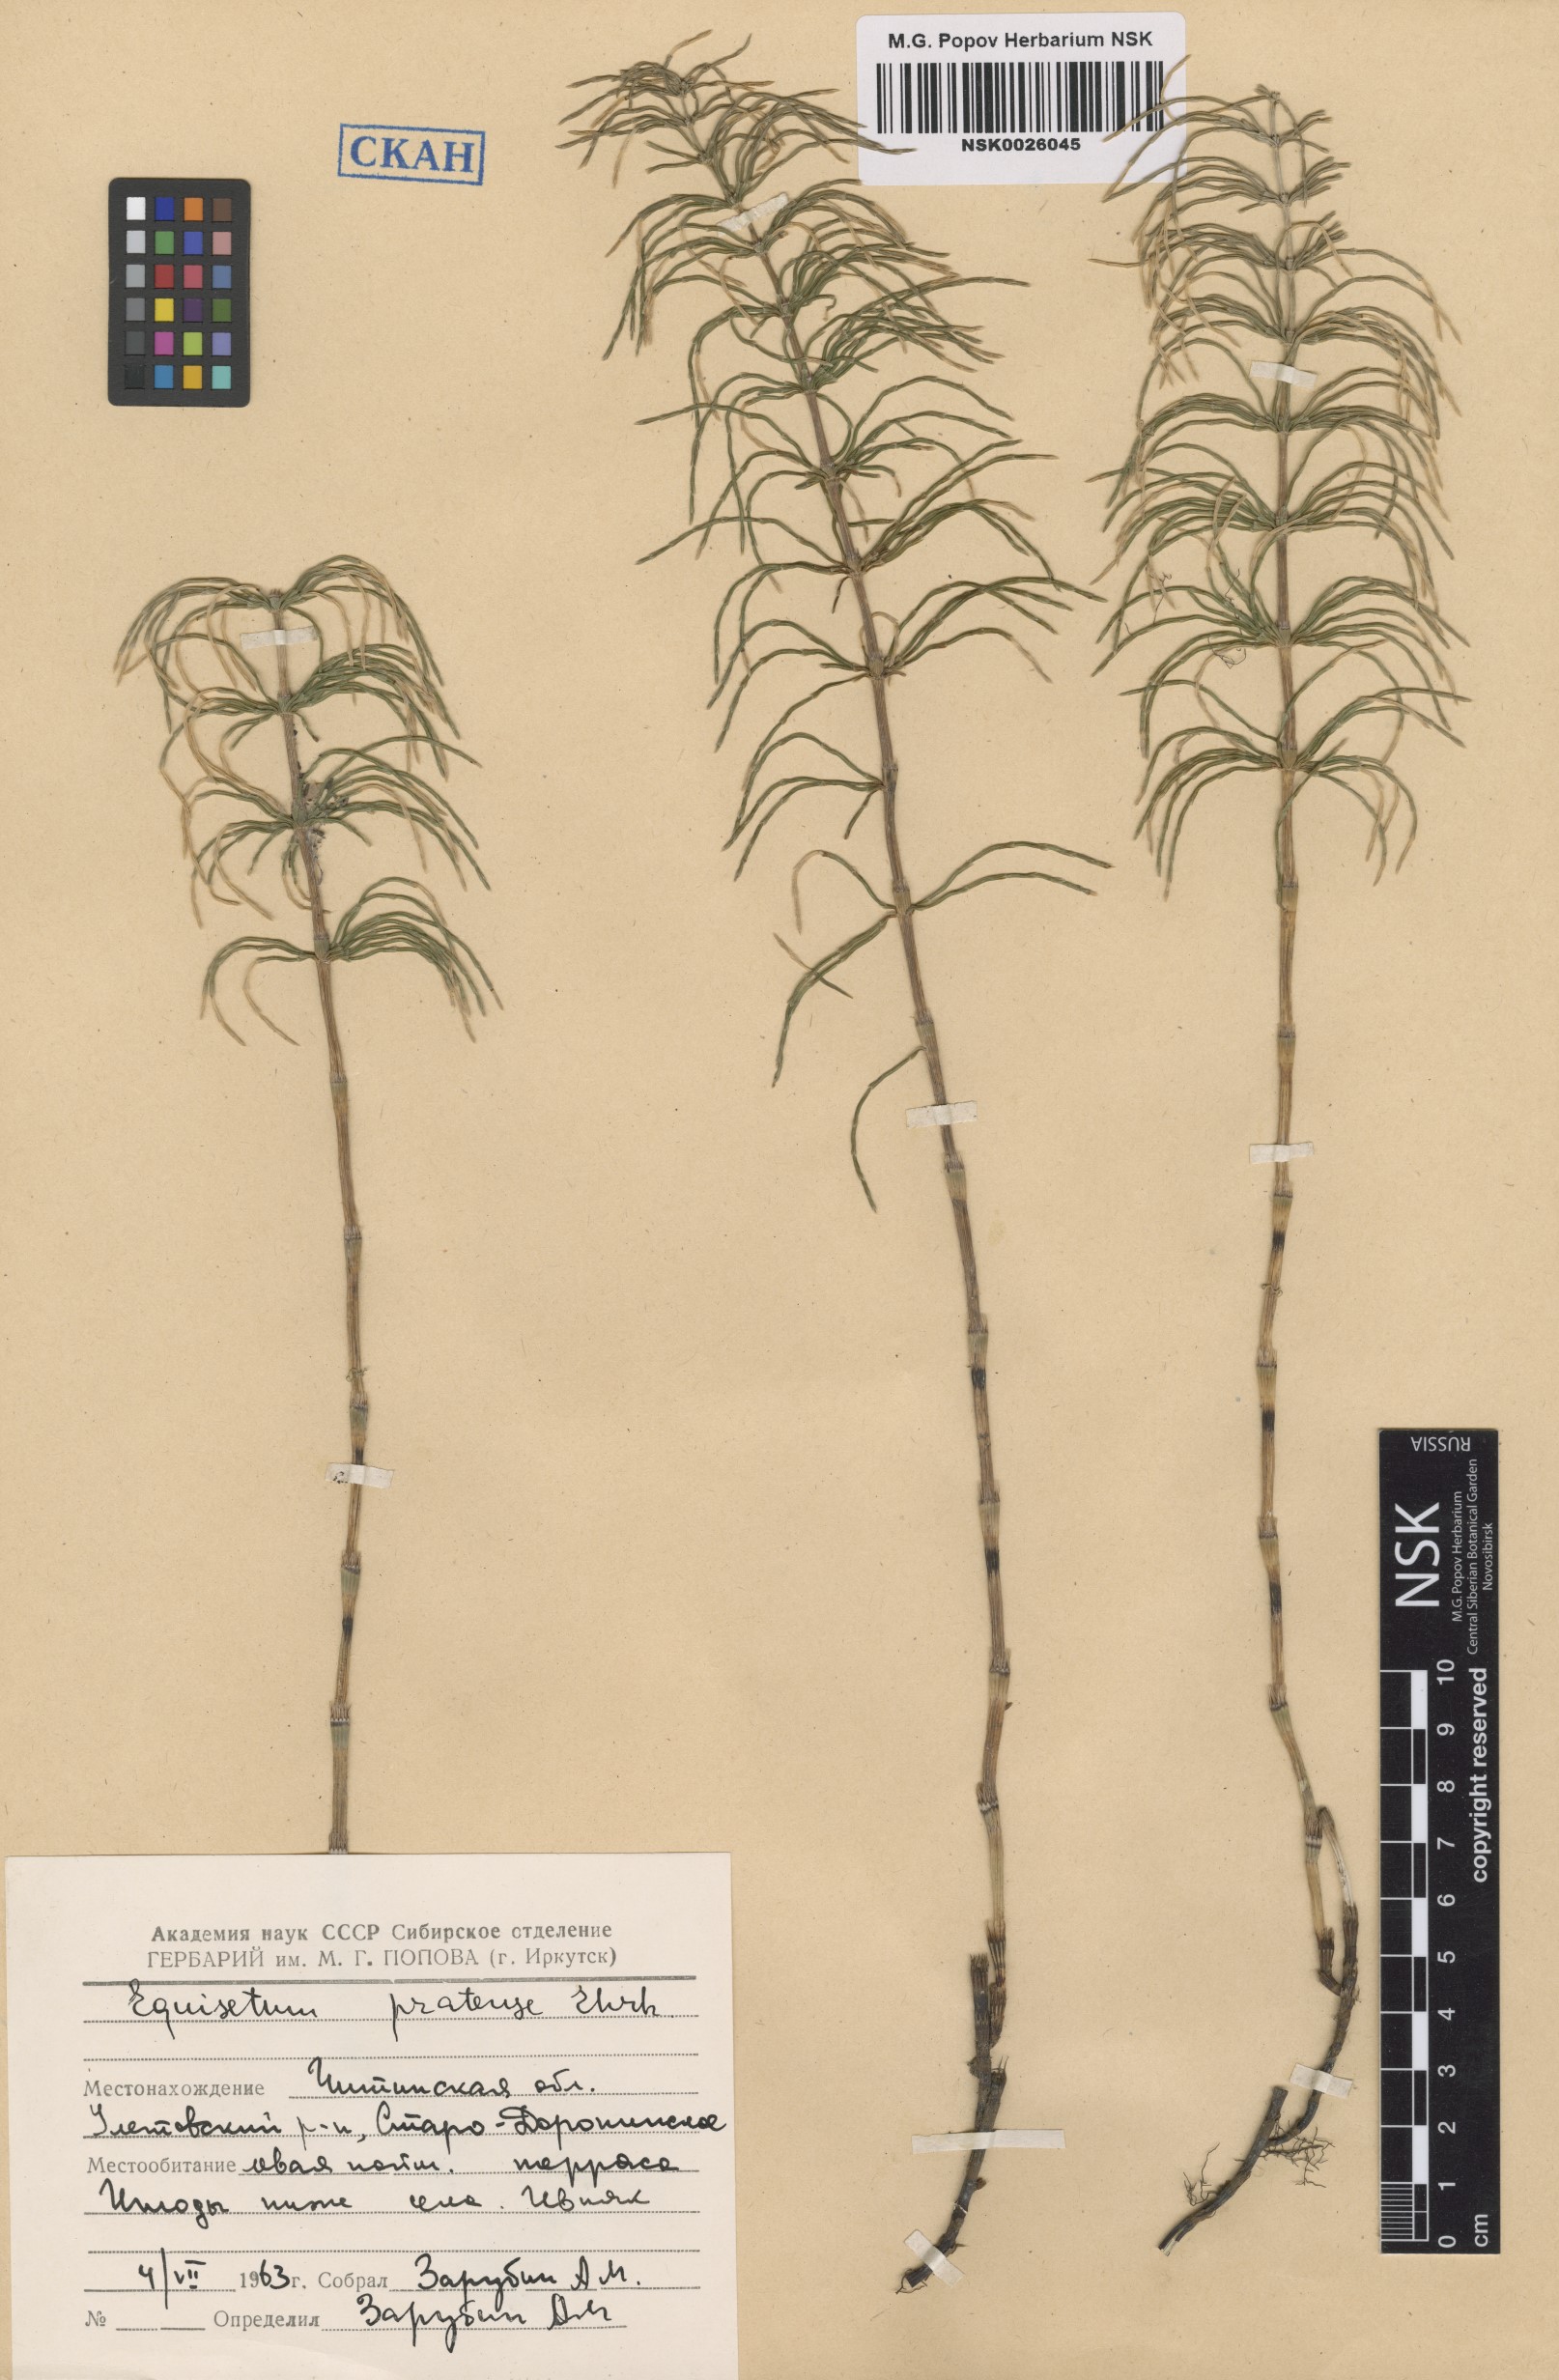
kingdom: Plantae
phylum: Tracheophyta
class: Polypodiopsida
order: Equisetales
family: Equisetaceae
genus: Equisetum
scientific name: Equisetum pratense
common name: Meadow horsetail
